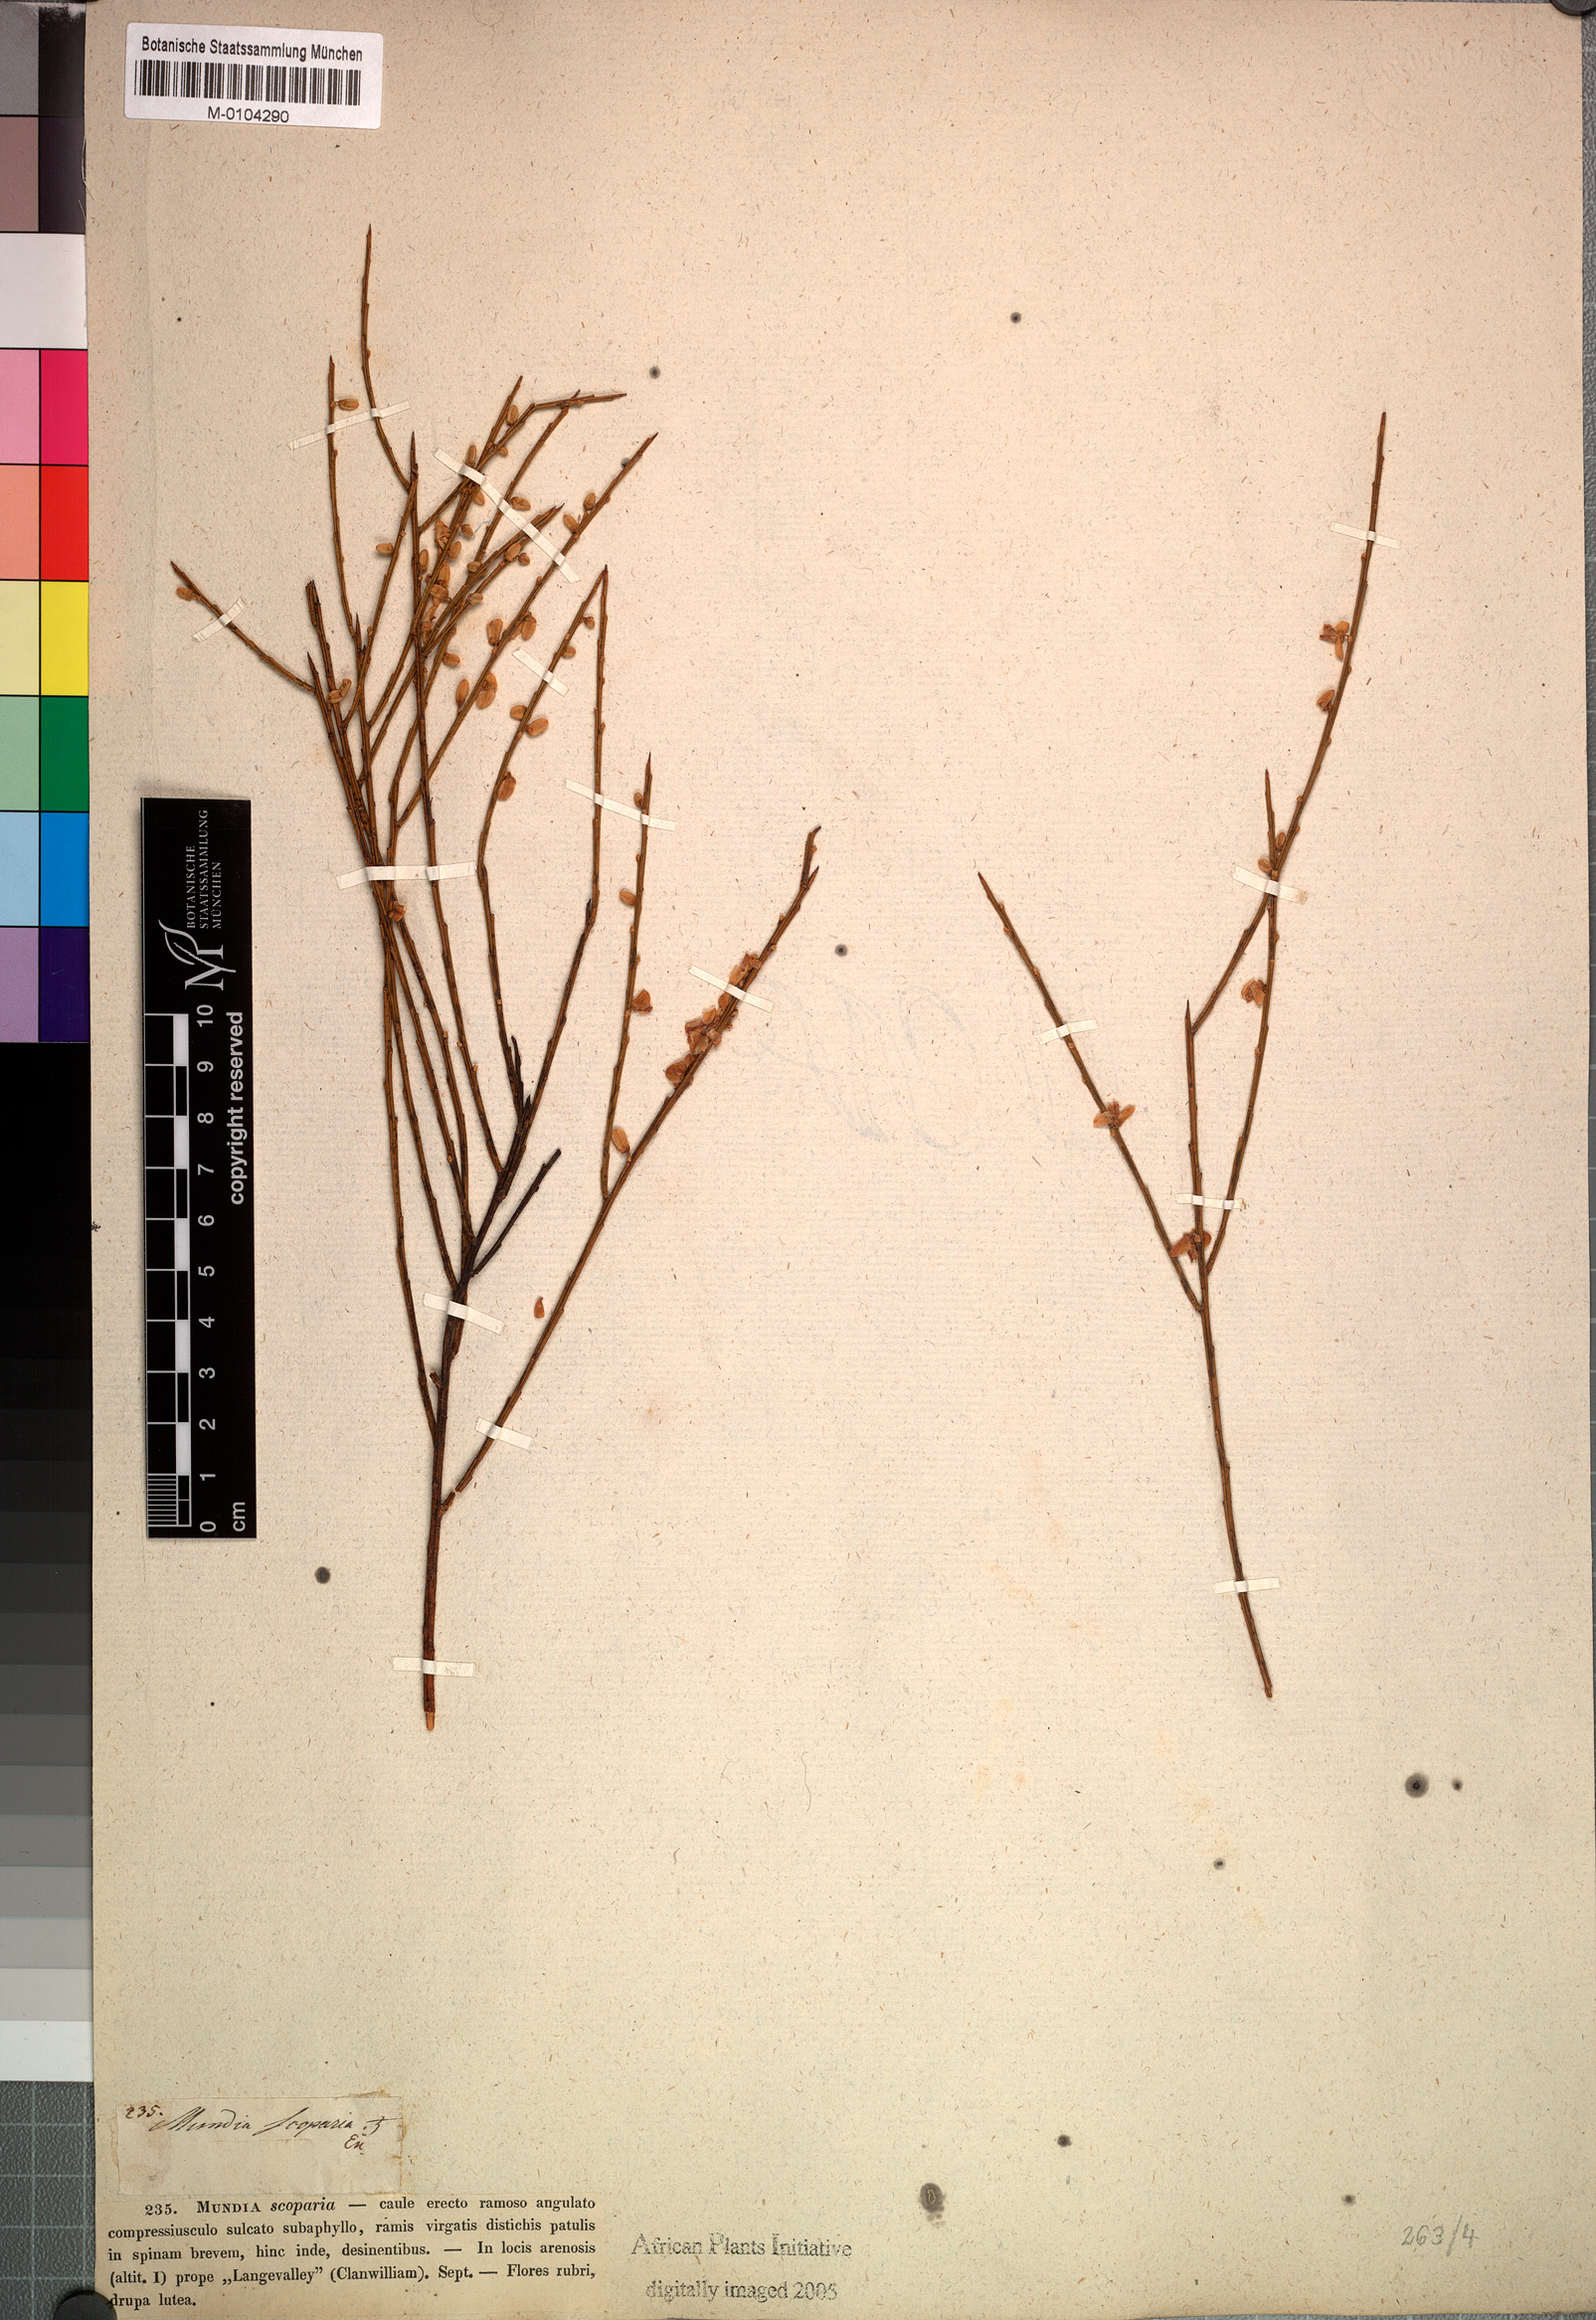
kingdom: Plantae
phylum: Tracheophyta
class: Magnoliopsida
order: Fabales
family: Polygalaceae
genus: Muraltia
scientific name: Muraltia scoparia
